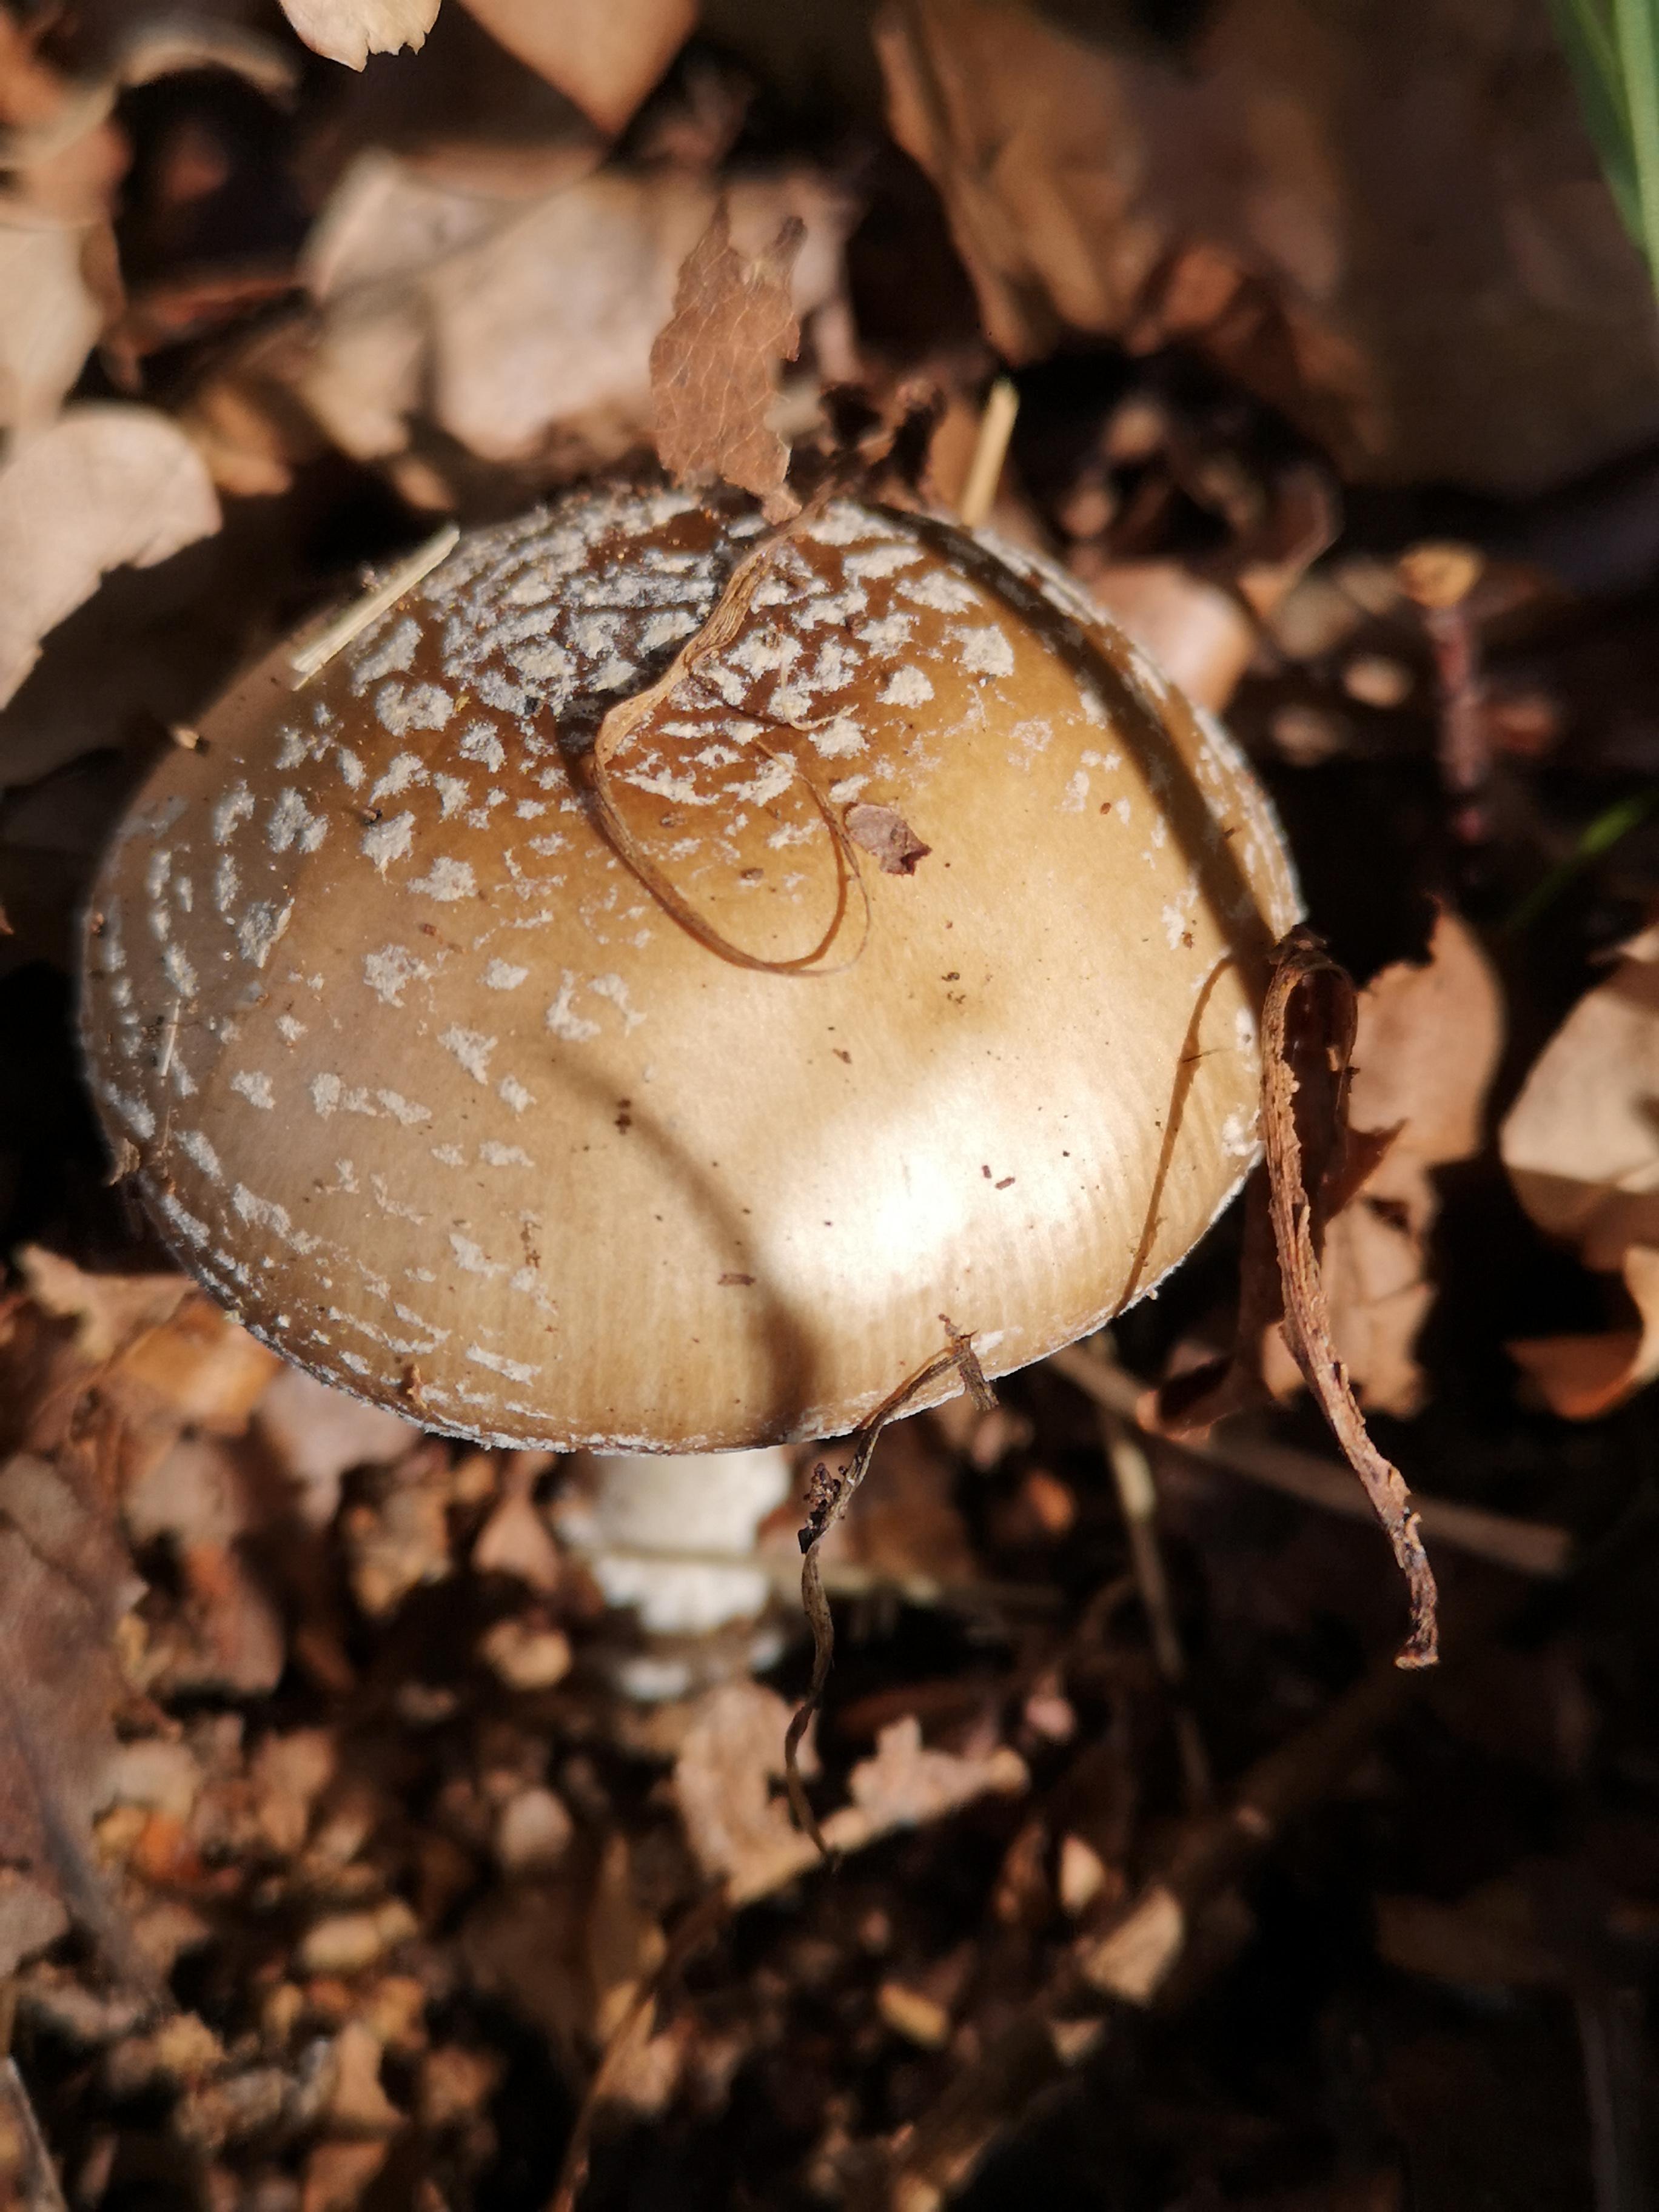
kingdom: Fungi
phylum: Basidiomycota
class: Agaricomycetes
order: Agaricales
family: Amanitaceae
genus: Amanita
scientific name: Amanita pantherina
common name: panter-fluesvamp
